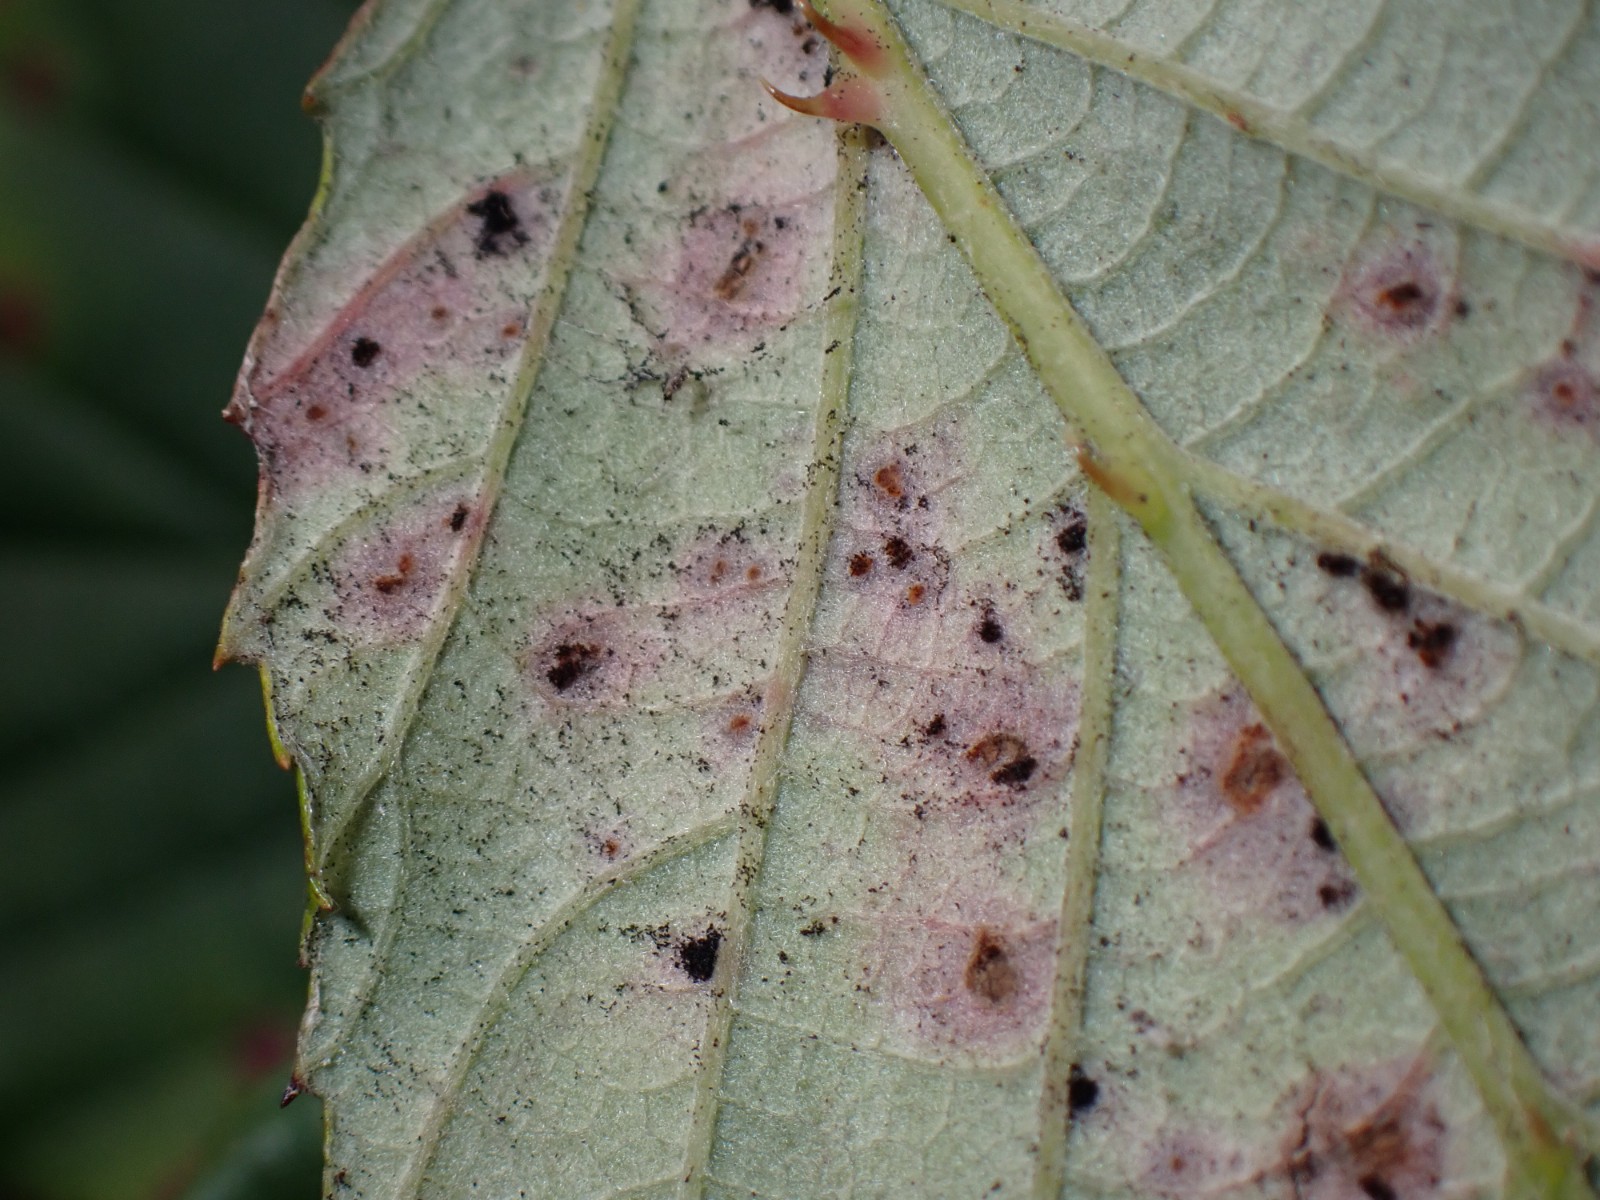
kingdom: Fungi
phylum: Basidiomycota
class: Pucciniomycetes
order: Pucciniales
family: Phragmidiaceae
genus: Phragmidium
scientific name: Phragmidium violaceum
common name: violet flercellerust
